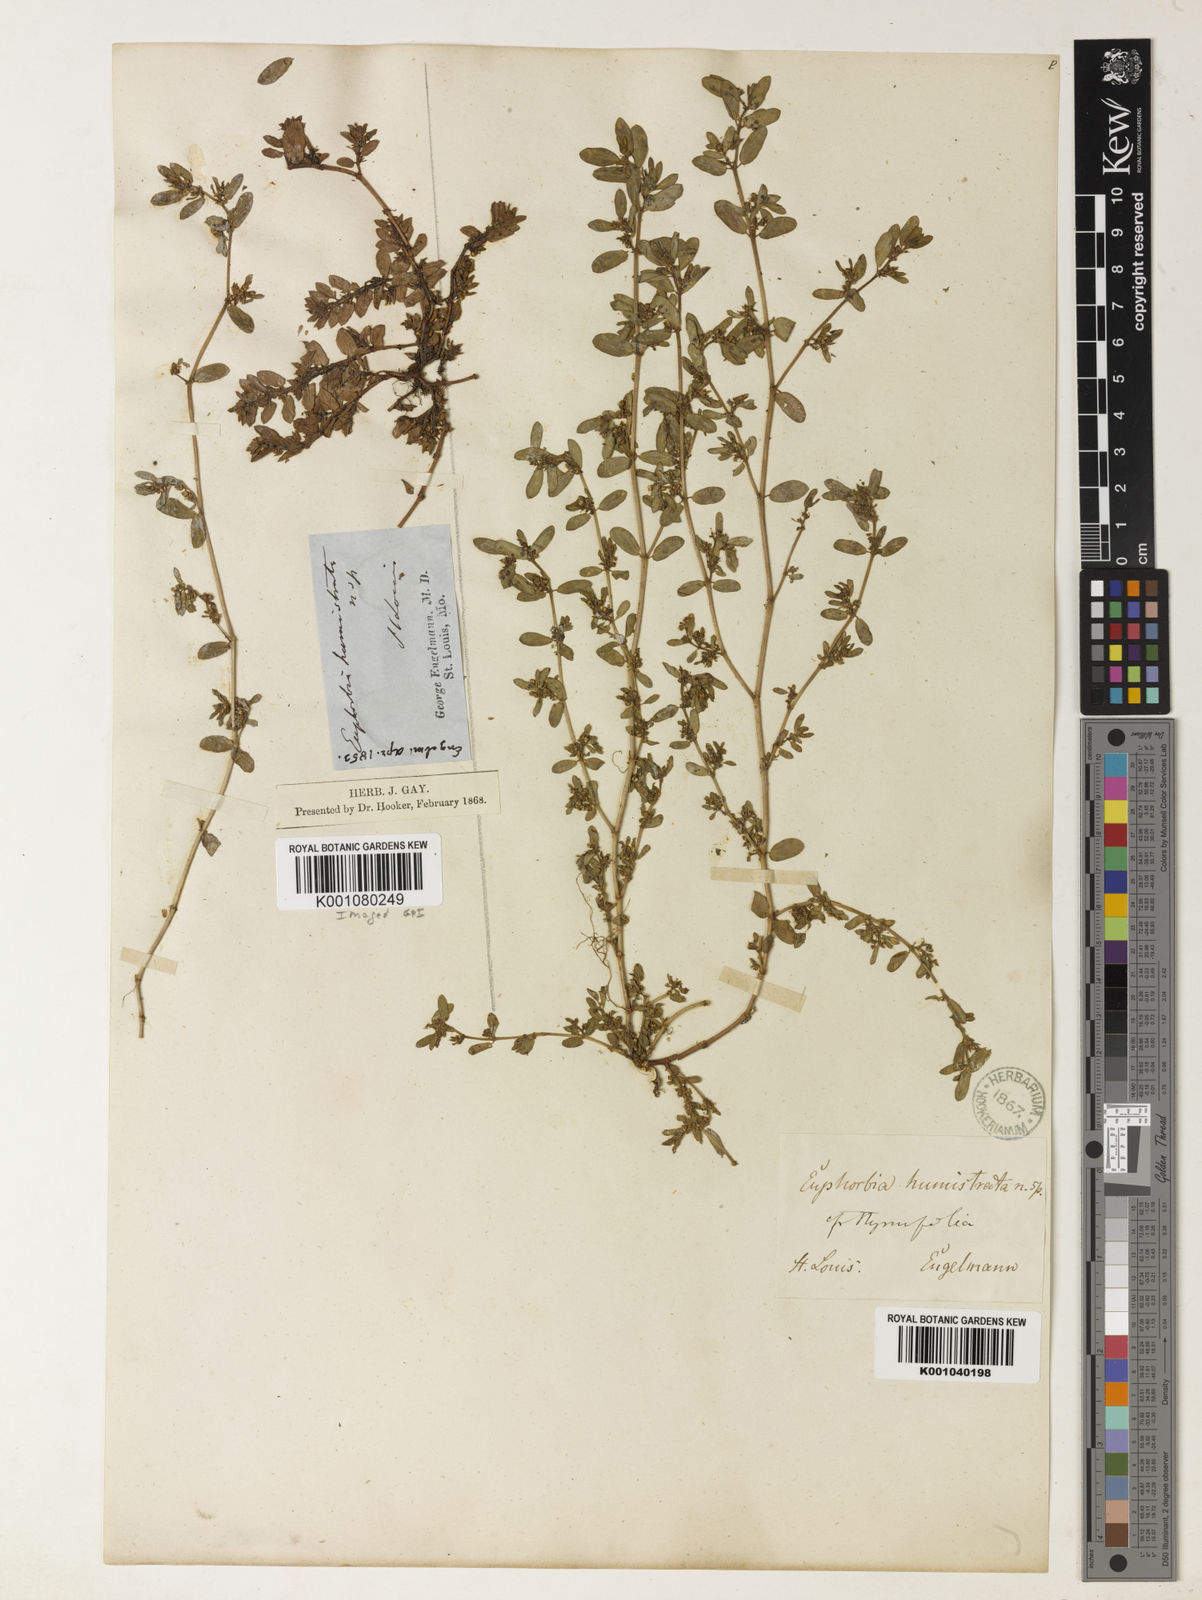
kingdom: Plantae
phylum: Tracheophyta
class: Magnoliopsida
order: Malpighiales
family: Euphorbiaceae
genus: Euphorbia
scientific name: Euphorbia
